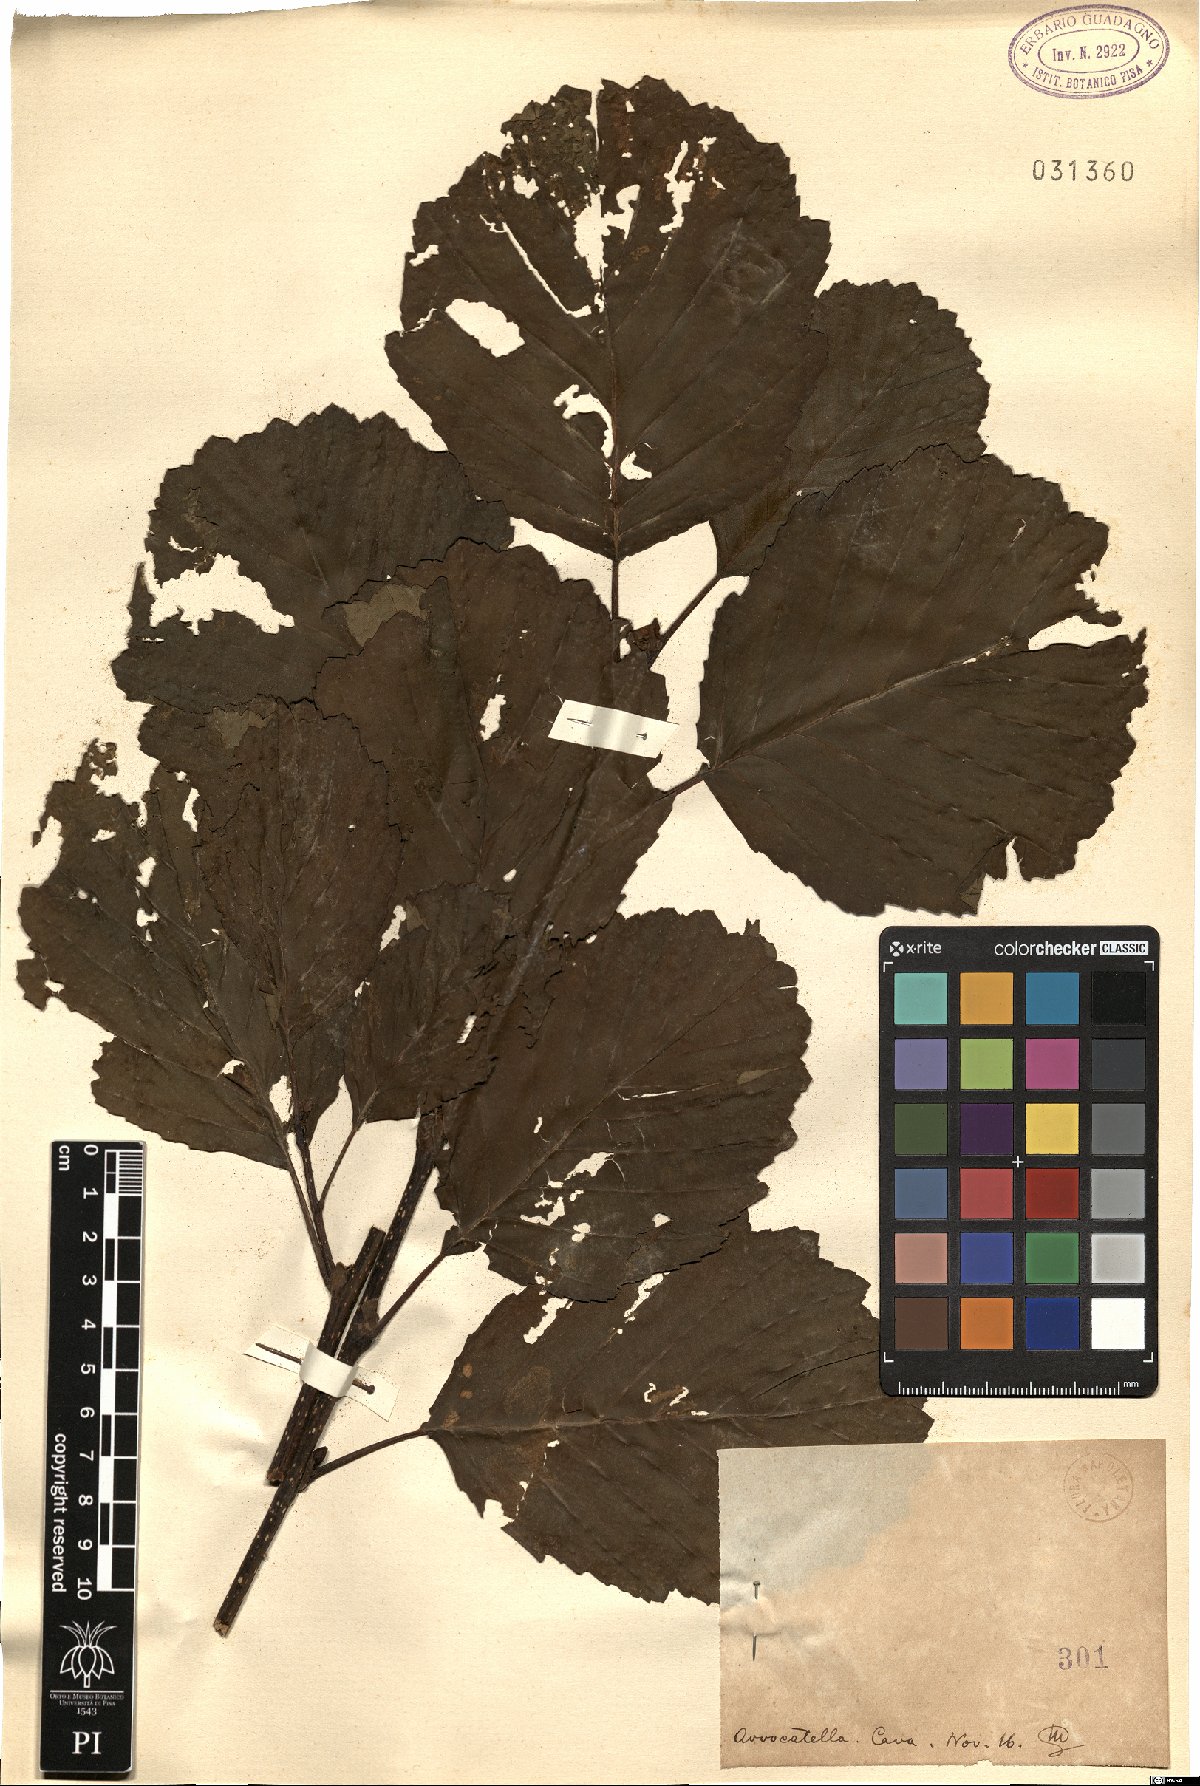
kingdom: Plantae
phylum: Tracheophyta
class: Magnoliopsida
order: Fagales
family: Betulaceae
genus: Alnus
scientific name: Alnus
